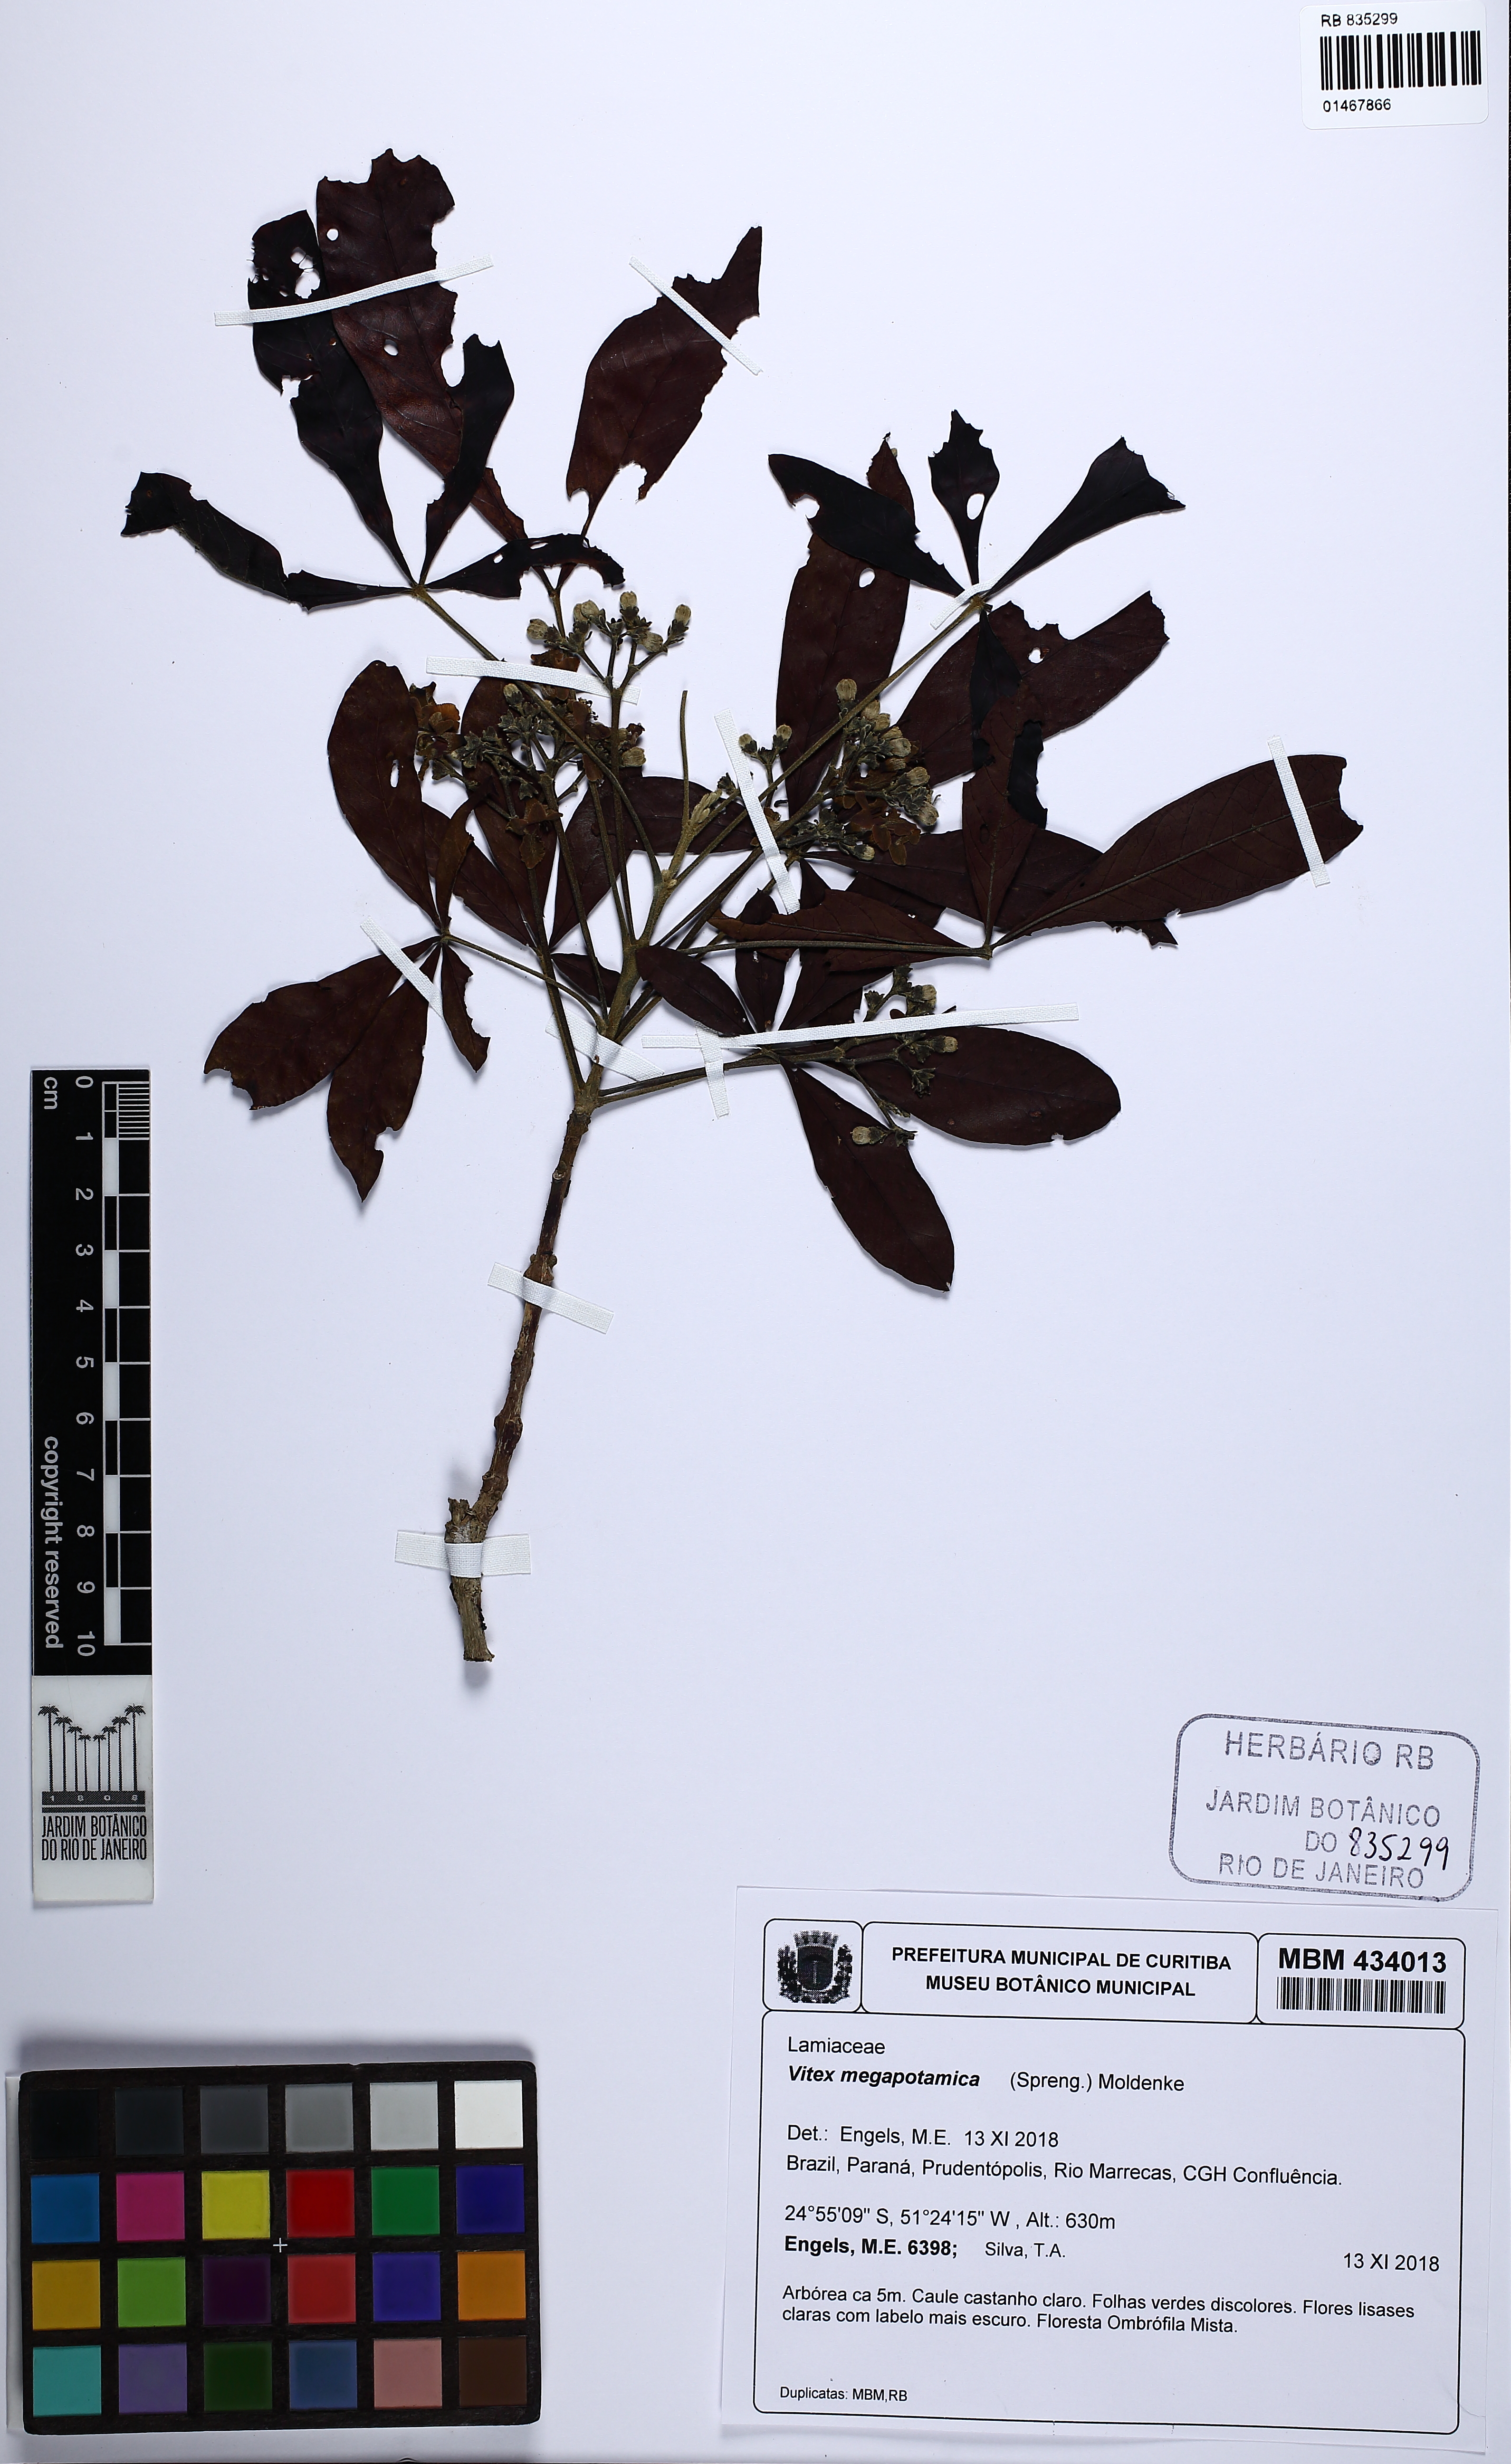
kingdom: Plantae
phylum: Tracheophyta
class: Magnoliopsida
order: Lamiales
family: Lamiaceae
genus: Vitex
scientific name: Vitex megapotamica
